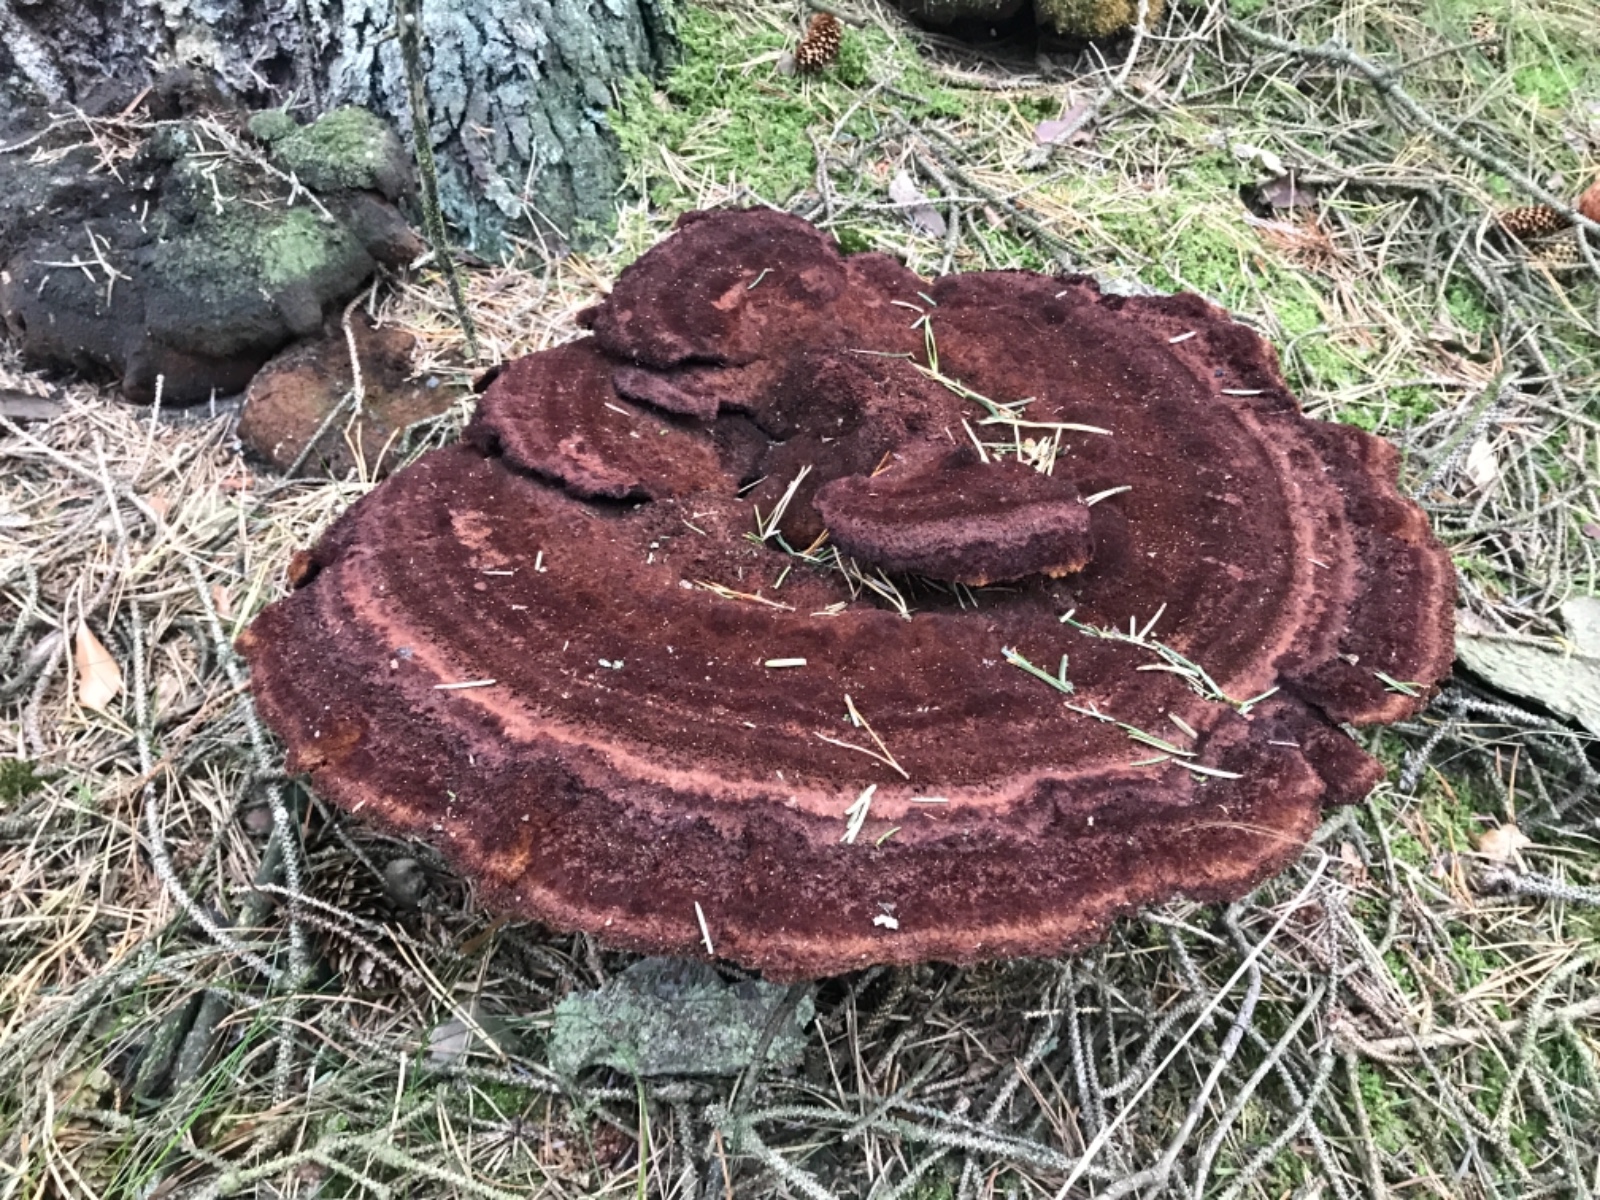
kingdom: Fungi
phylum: Basidiomycota
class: Agaricomycetes
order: Polyporales
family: Laetiporaceae
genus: Phaeolus
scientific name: Phaeolus schweinitzii
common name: brunporesvamp
